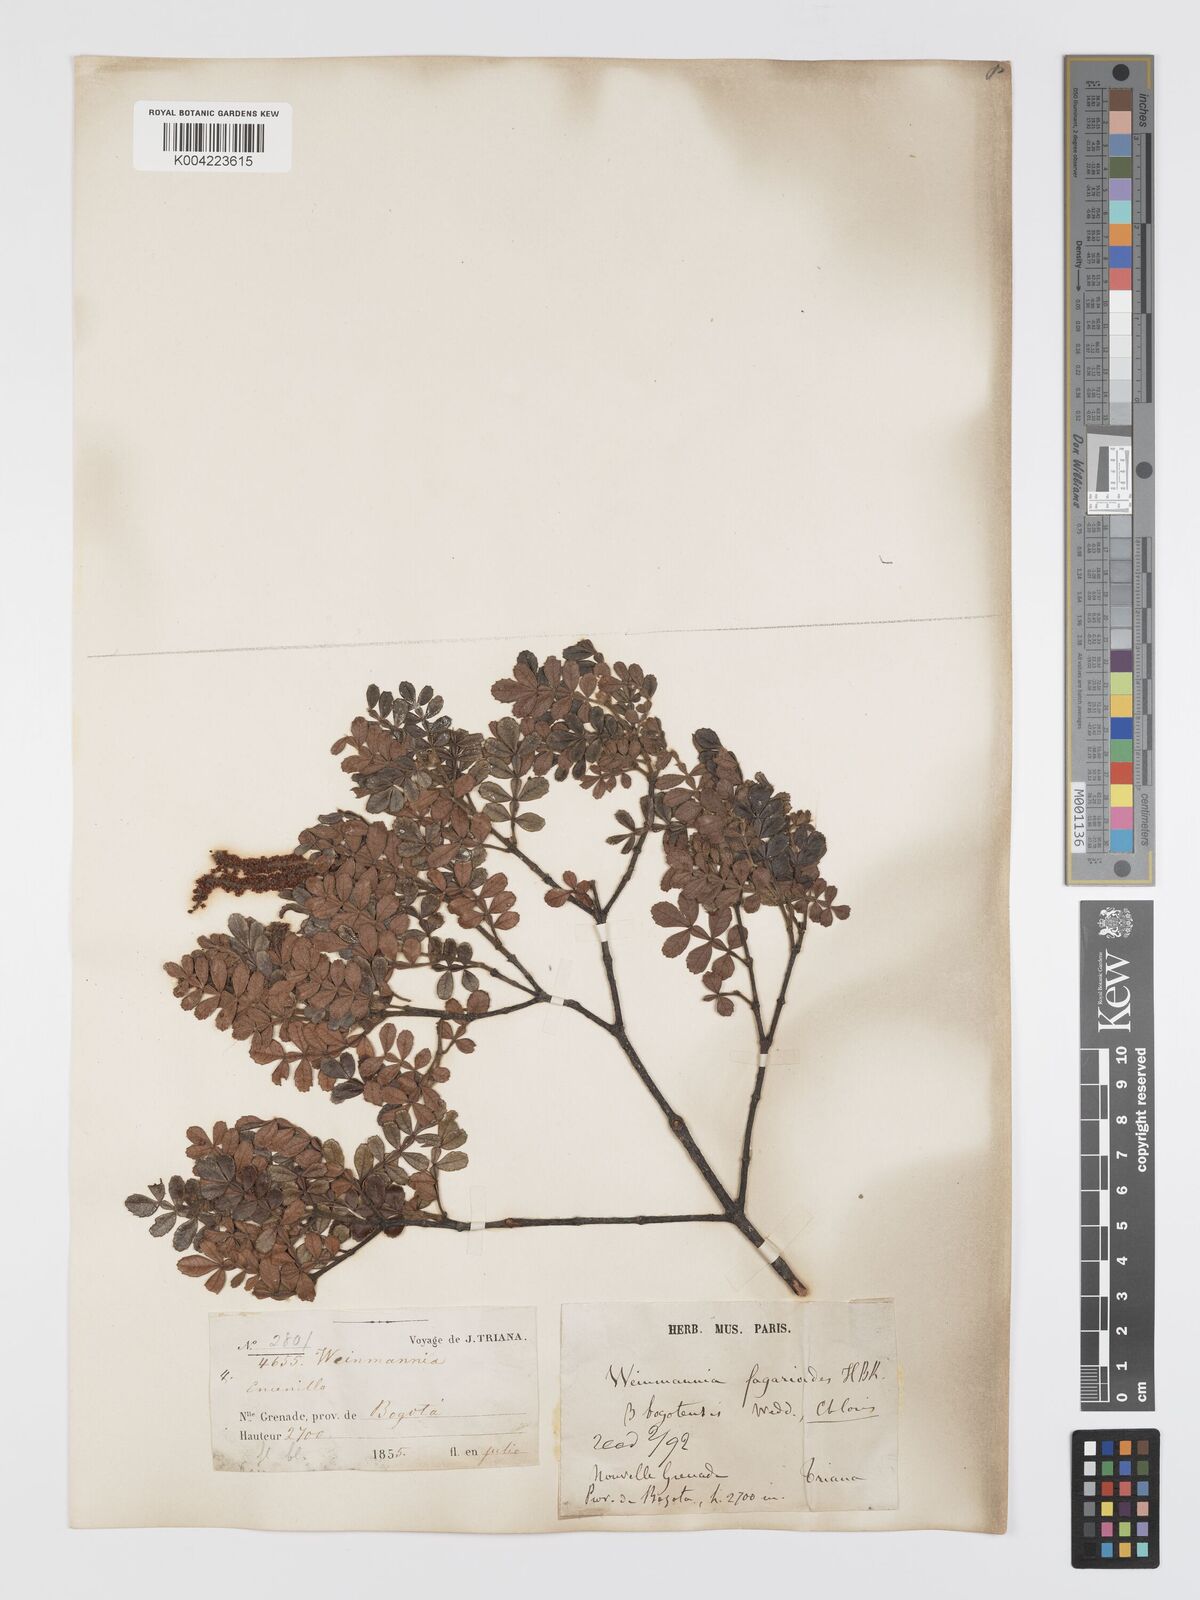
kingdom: Plantae
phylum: Tracheophyta
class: Magnoliopsida
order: Oxalidales
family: Cunoniaceae
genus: Weinmannia
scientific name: Weinmannia fagaroides
